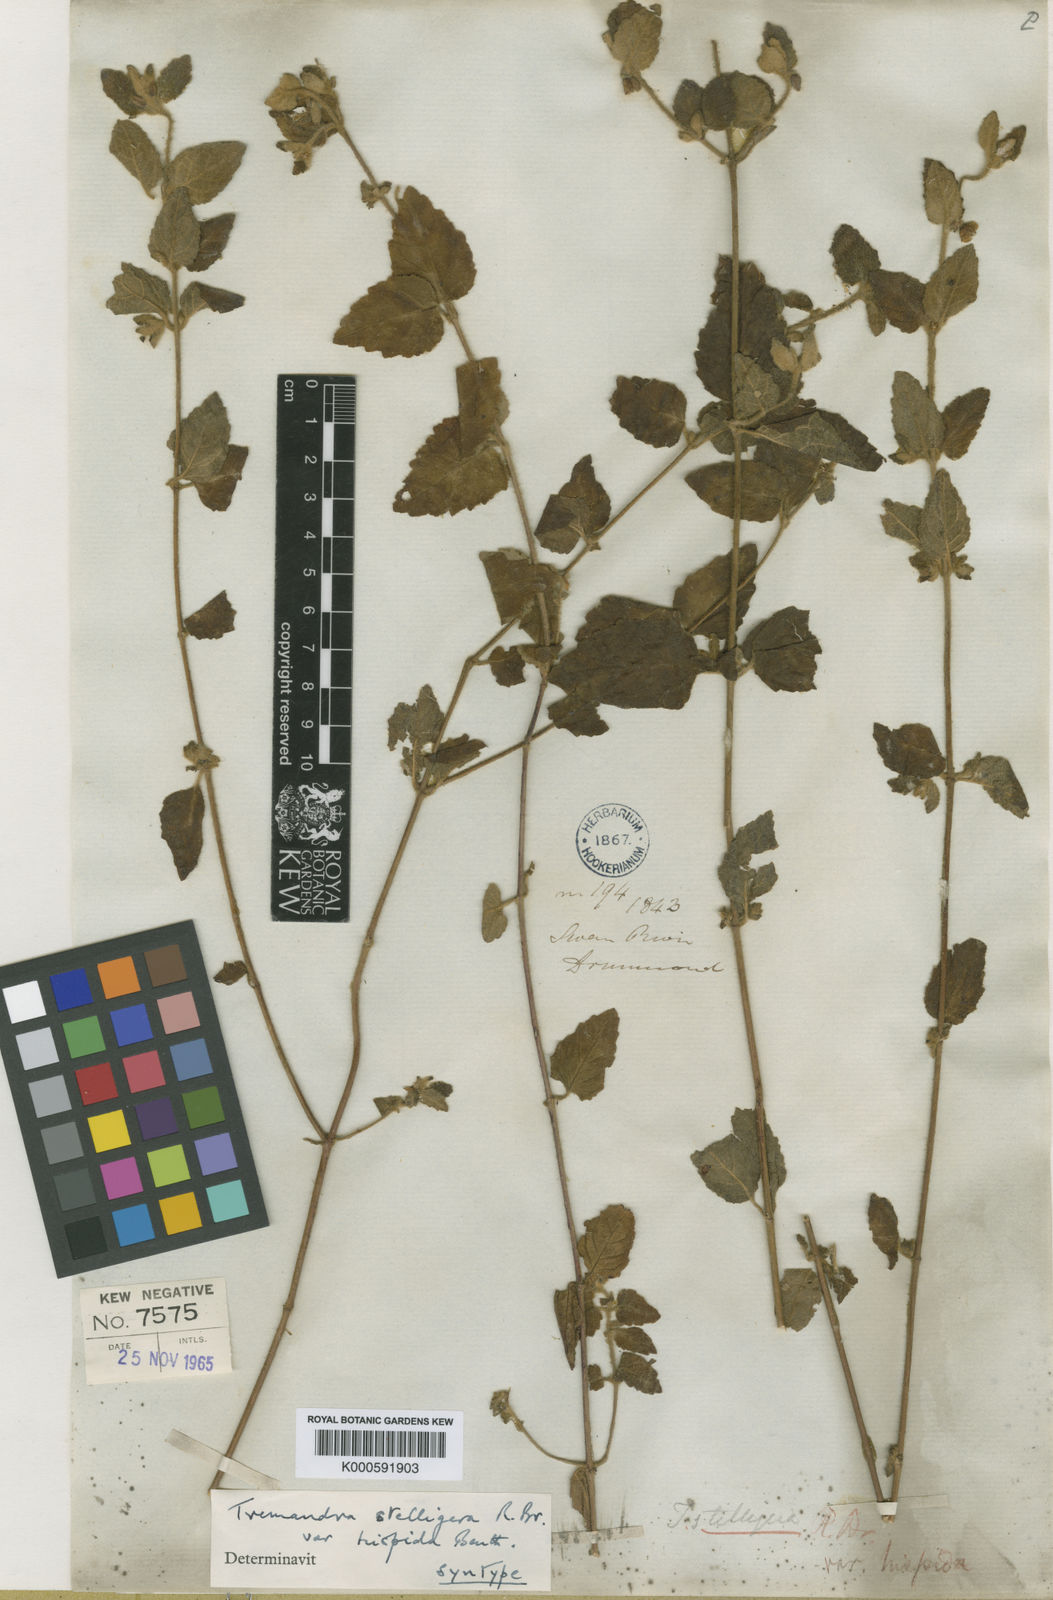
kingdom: Plantae
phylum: Tracheophyta
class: Magnoliopsida
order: Oxalidales
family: Elaeocarpaceae
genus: Tremandra
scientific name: Tremandra stelligera
